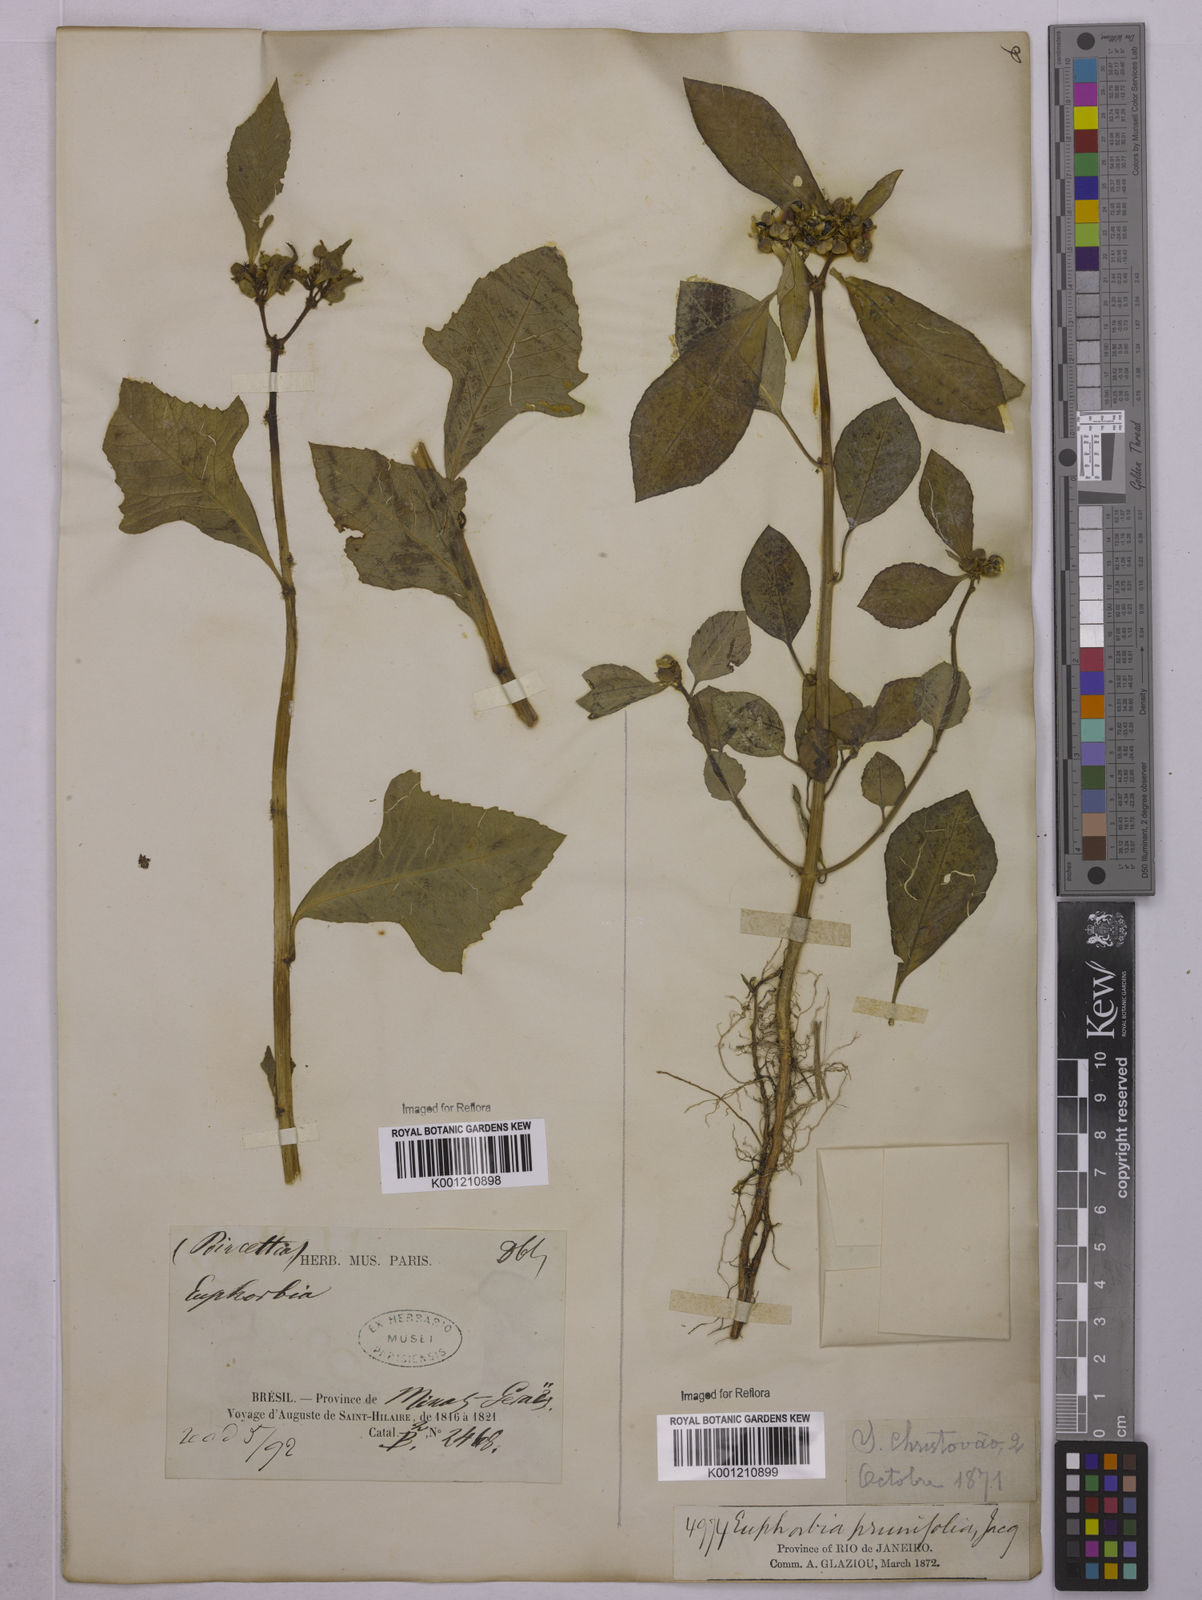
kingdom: Plantae
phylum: Tracheophyta
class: Magnoliopsida
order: Malpighiales
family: Euphorbiaceae
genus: Euphorbia
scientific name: Euphorbia heterophylla
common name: Mexican fireplant
